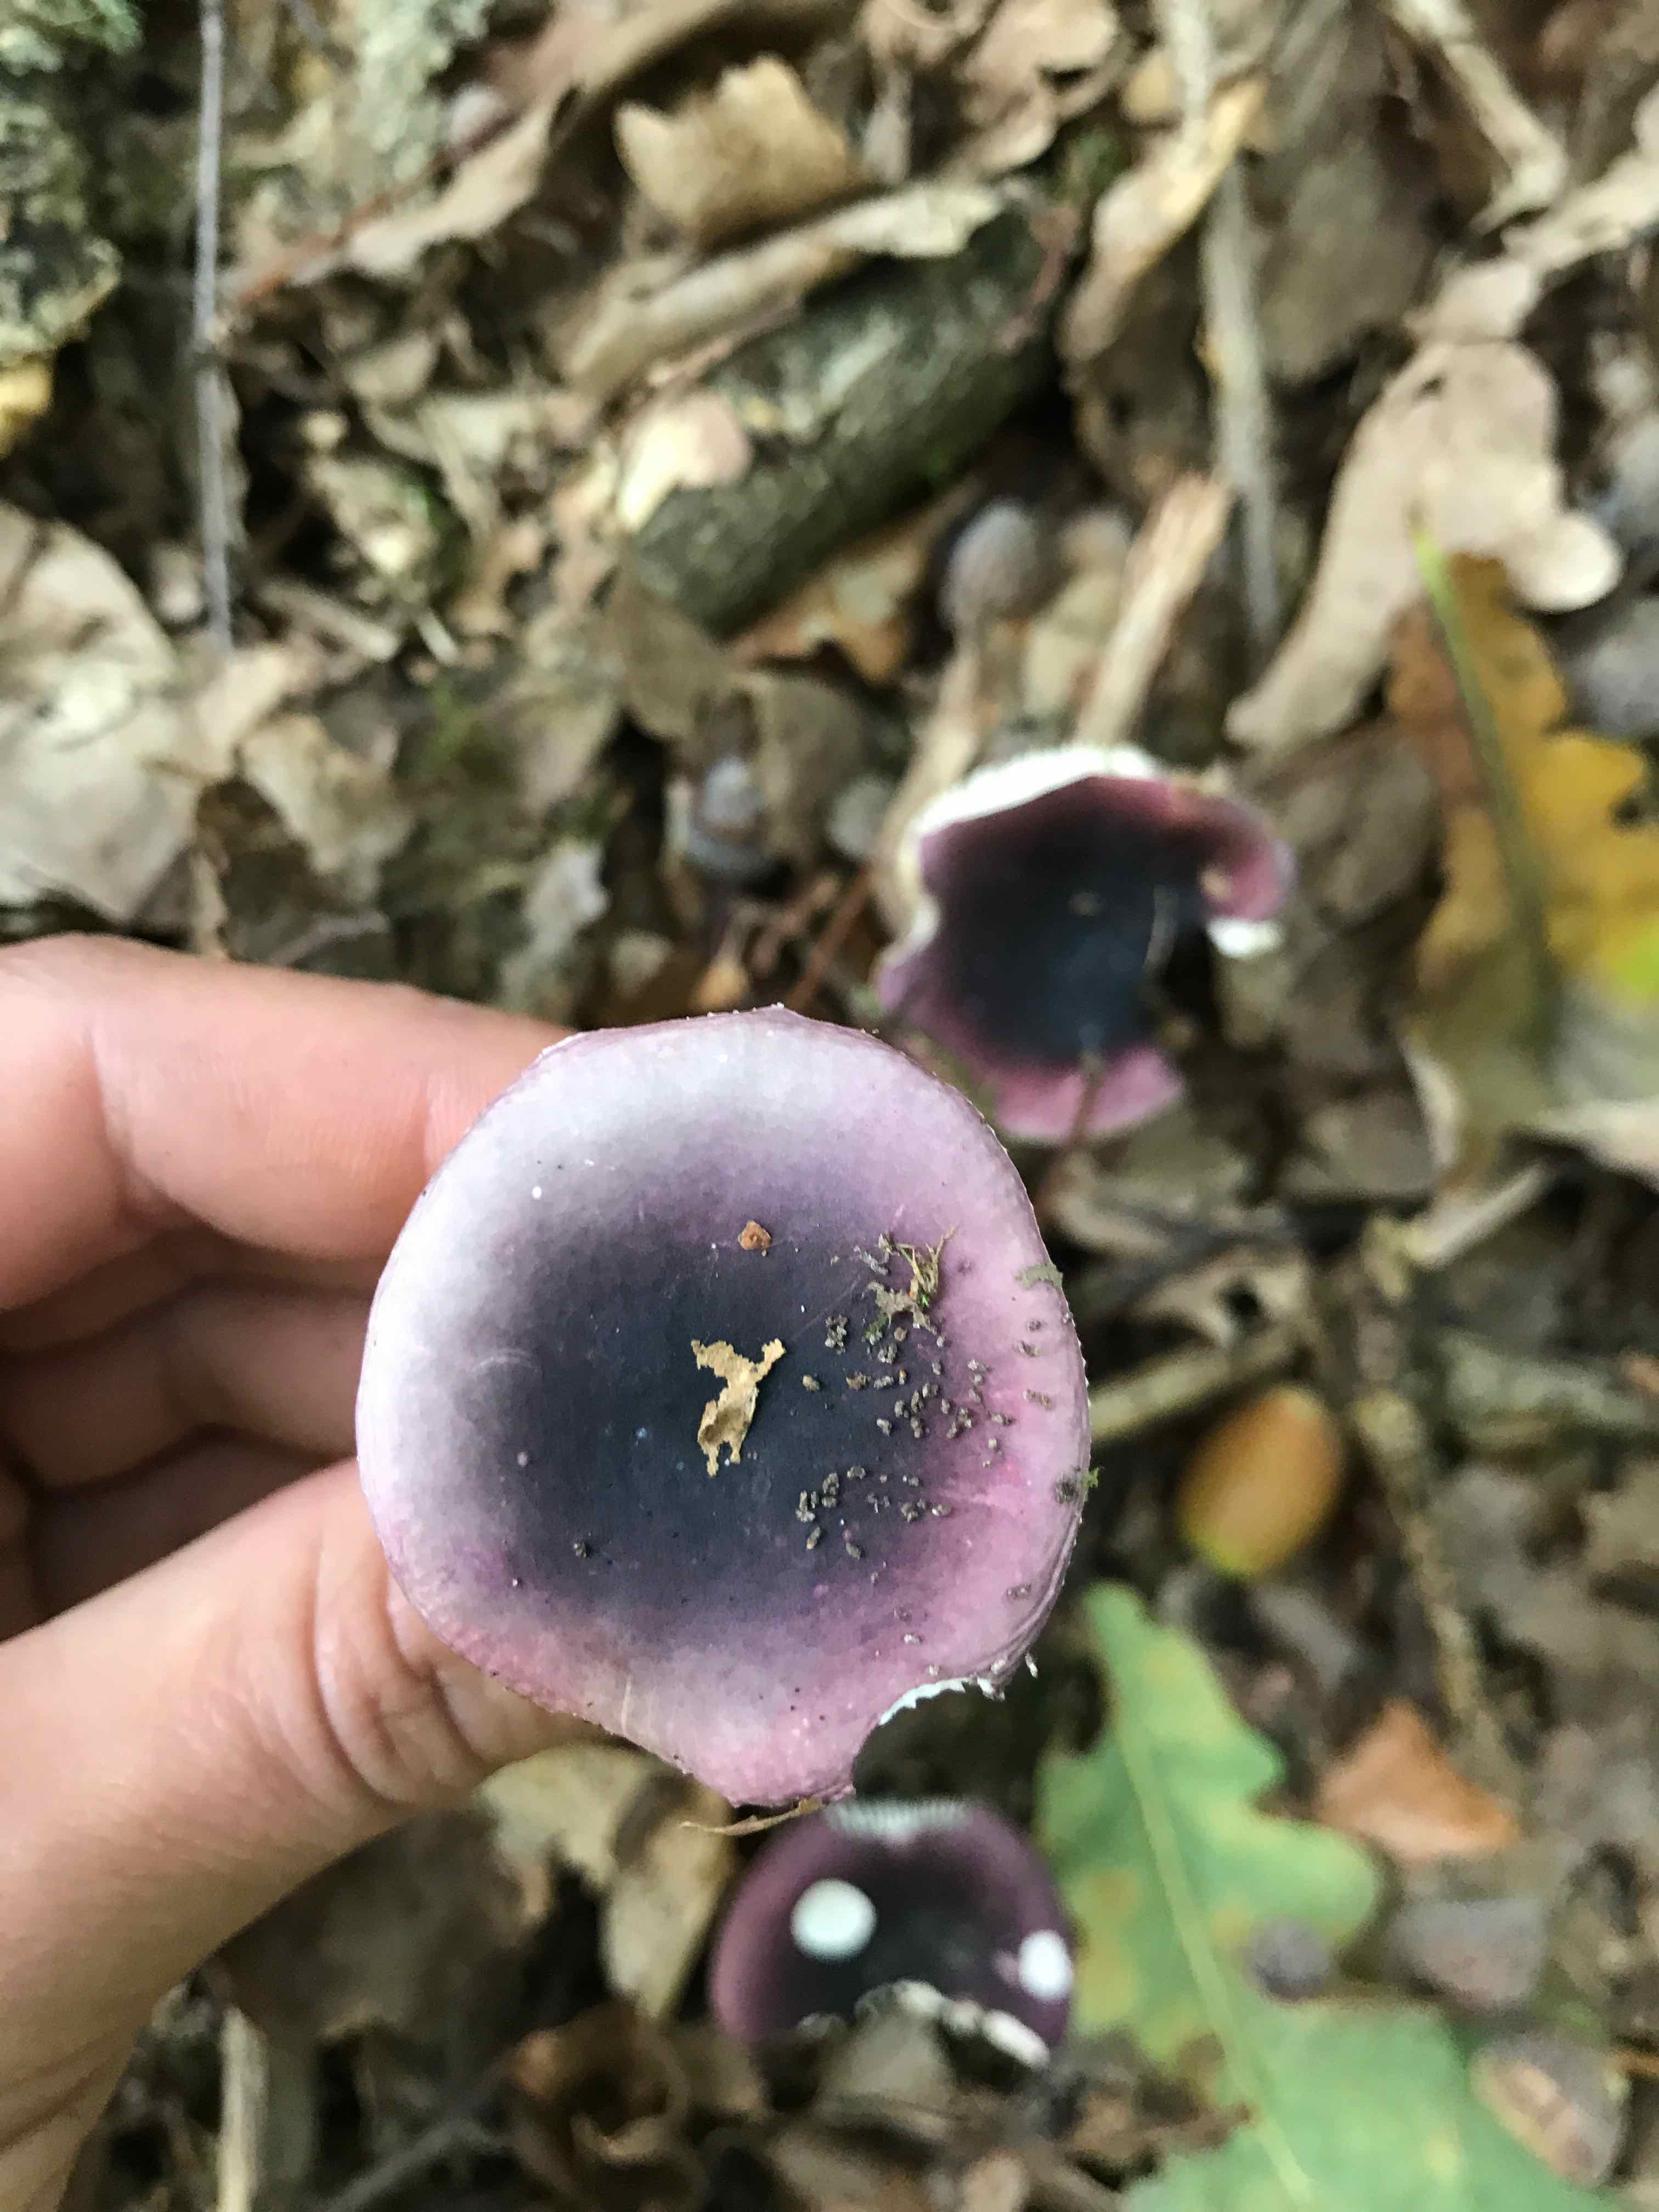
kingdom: Fungi
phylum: Basidiomycota
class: Agaricomycetes
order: Russulales
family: Russulaceae
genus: Russula
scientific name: Russula fragilis
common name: savbladet skørhat
